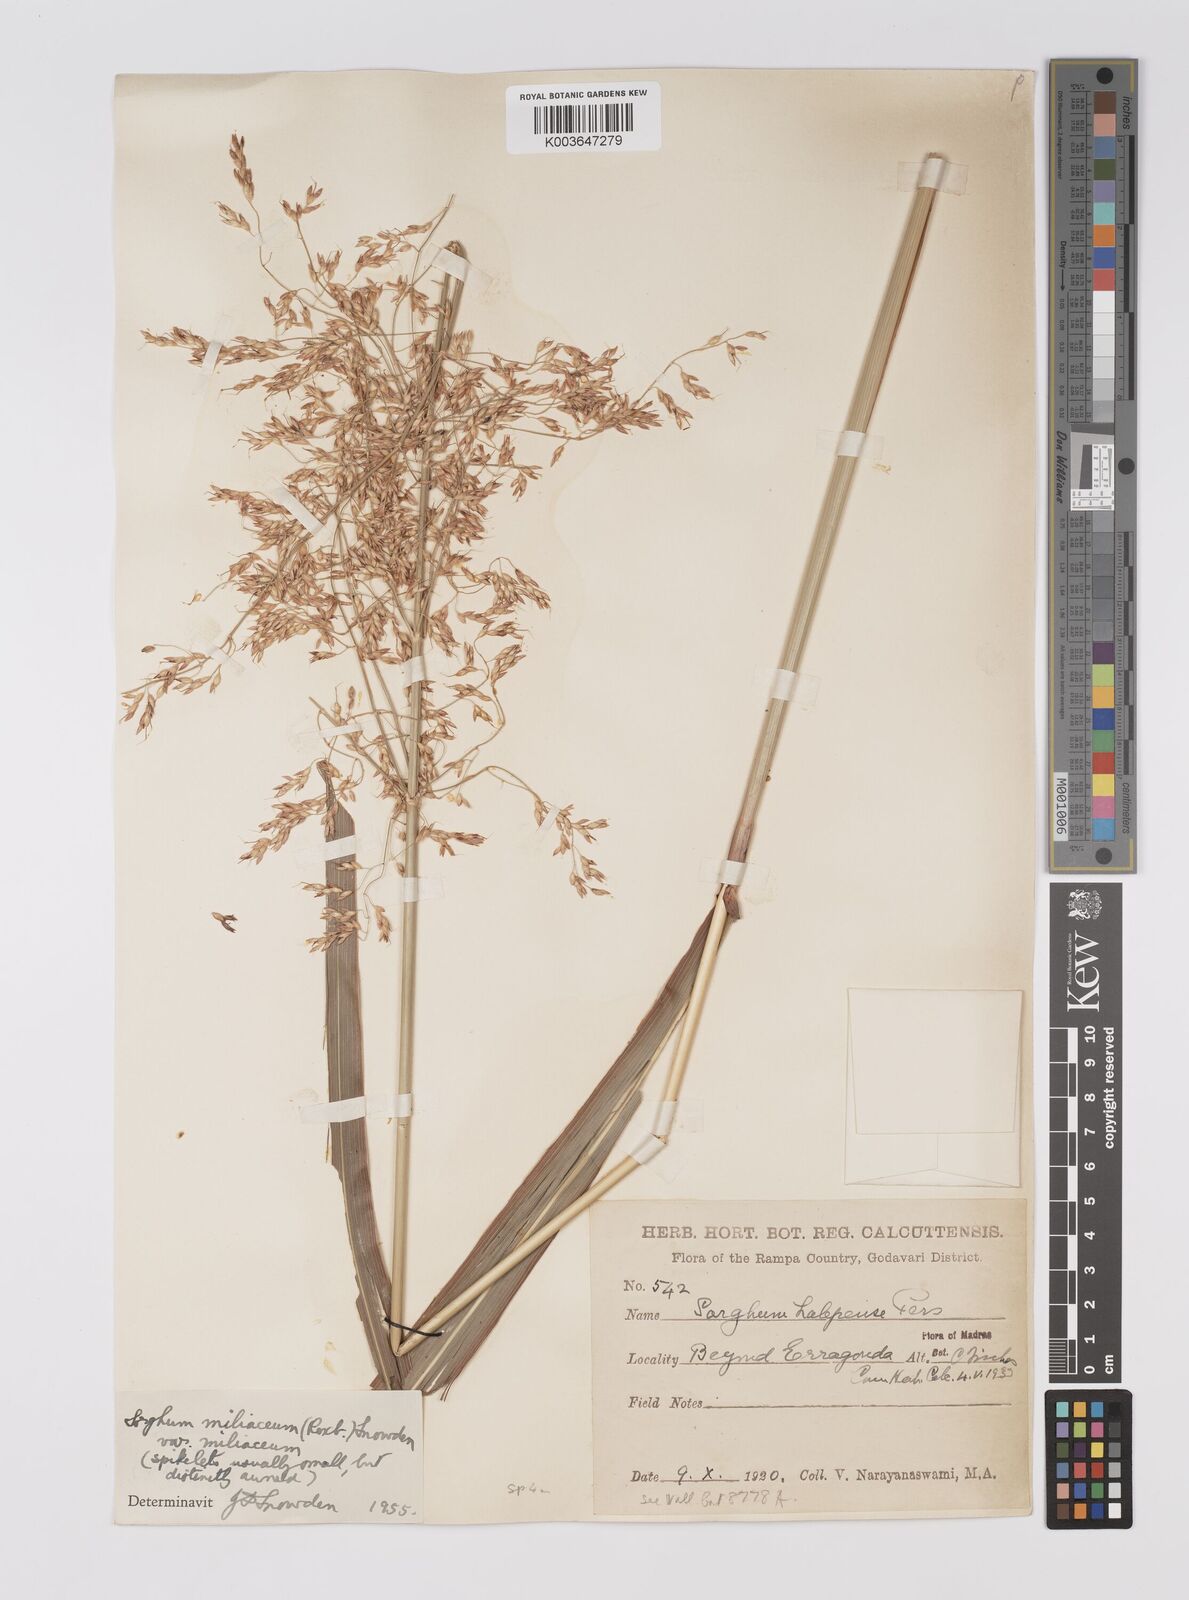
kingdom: Plantae
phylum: Tracheophyta
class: Liliopsida
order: Poales
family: Poaceae
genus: Sorghum
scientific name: Sorghum halepense
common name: Johnson-grass
